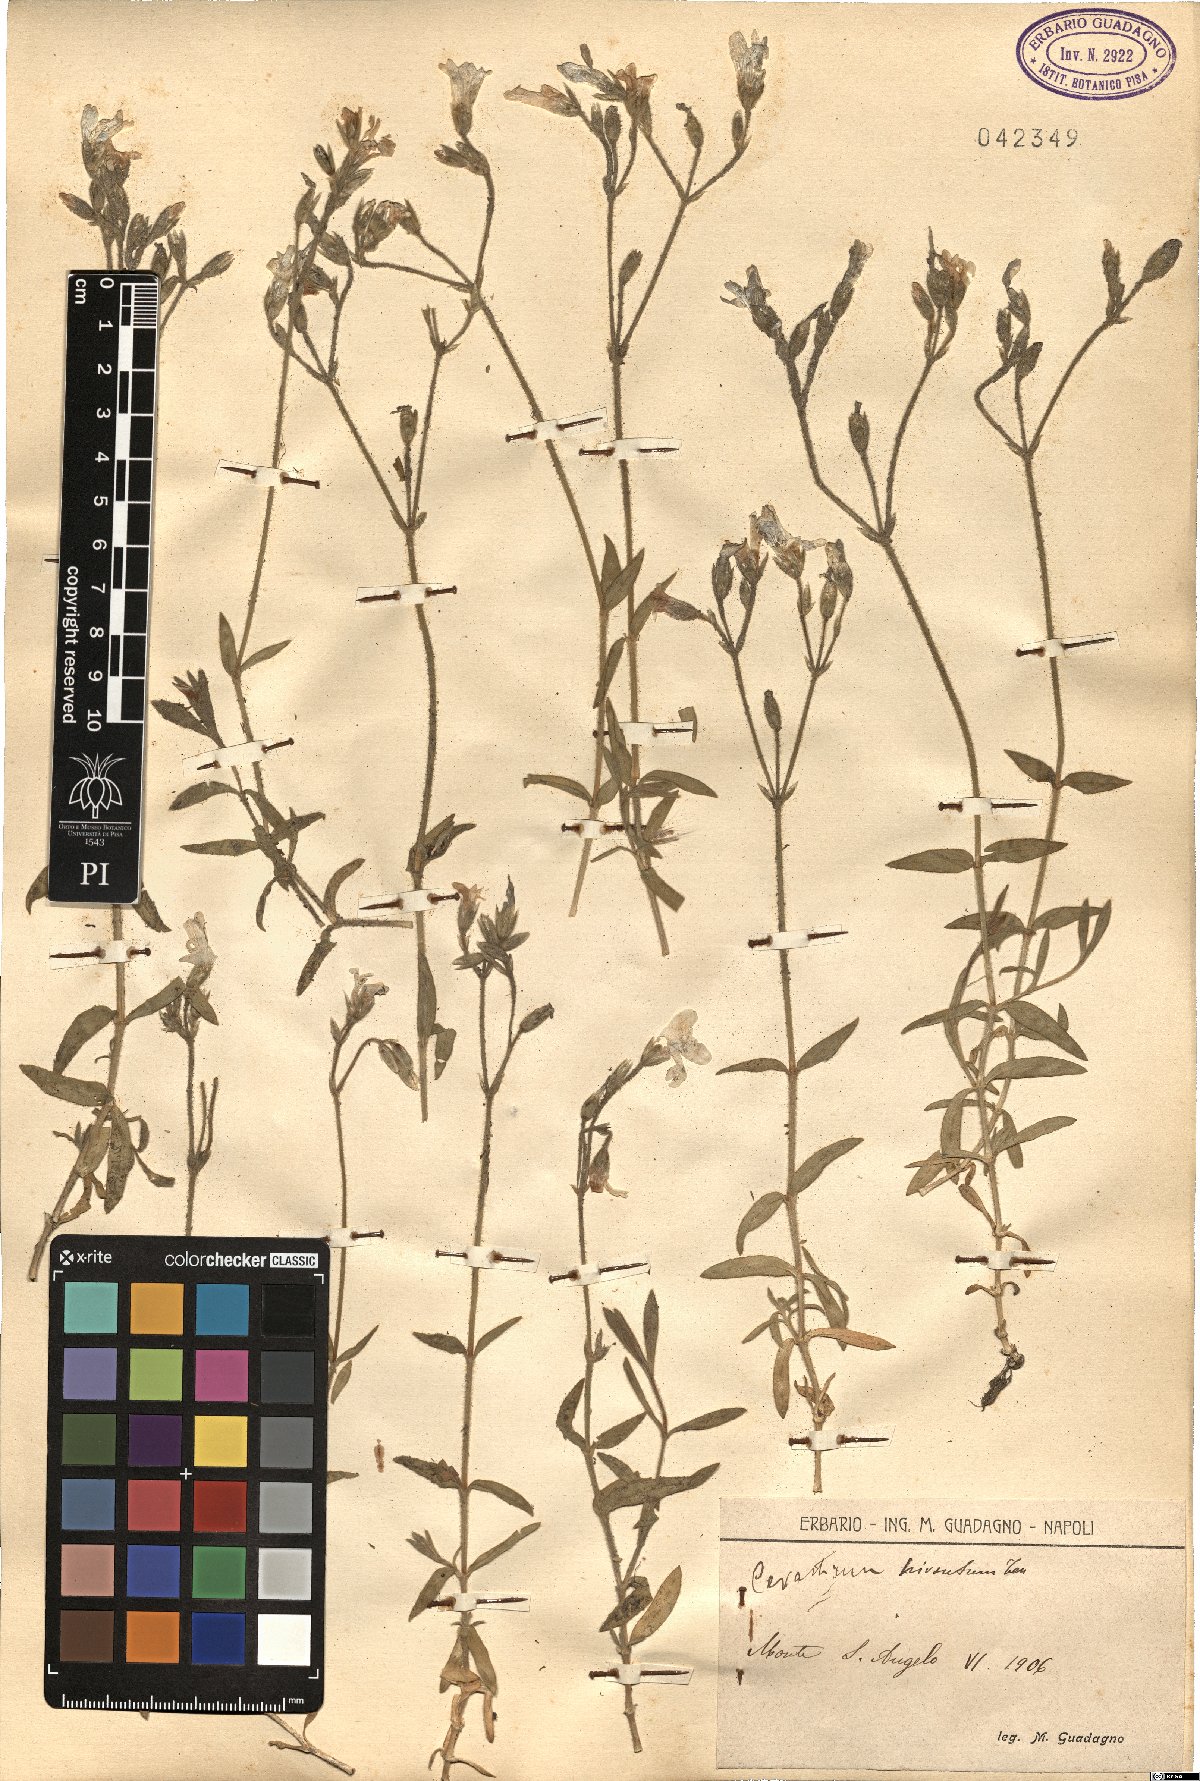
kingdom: Plantae
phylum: Tracheophyta
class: Magnoliopsida
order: Caryophyllales
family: Caryophyllaceae
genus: Cerastium
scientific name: Cerastium scaranii
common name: Italian mouse-ear
